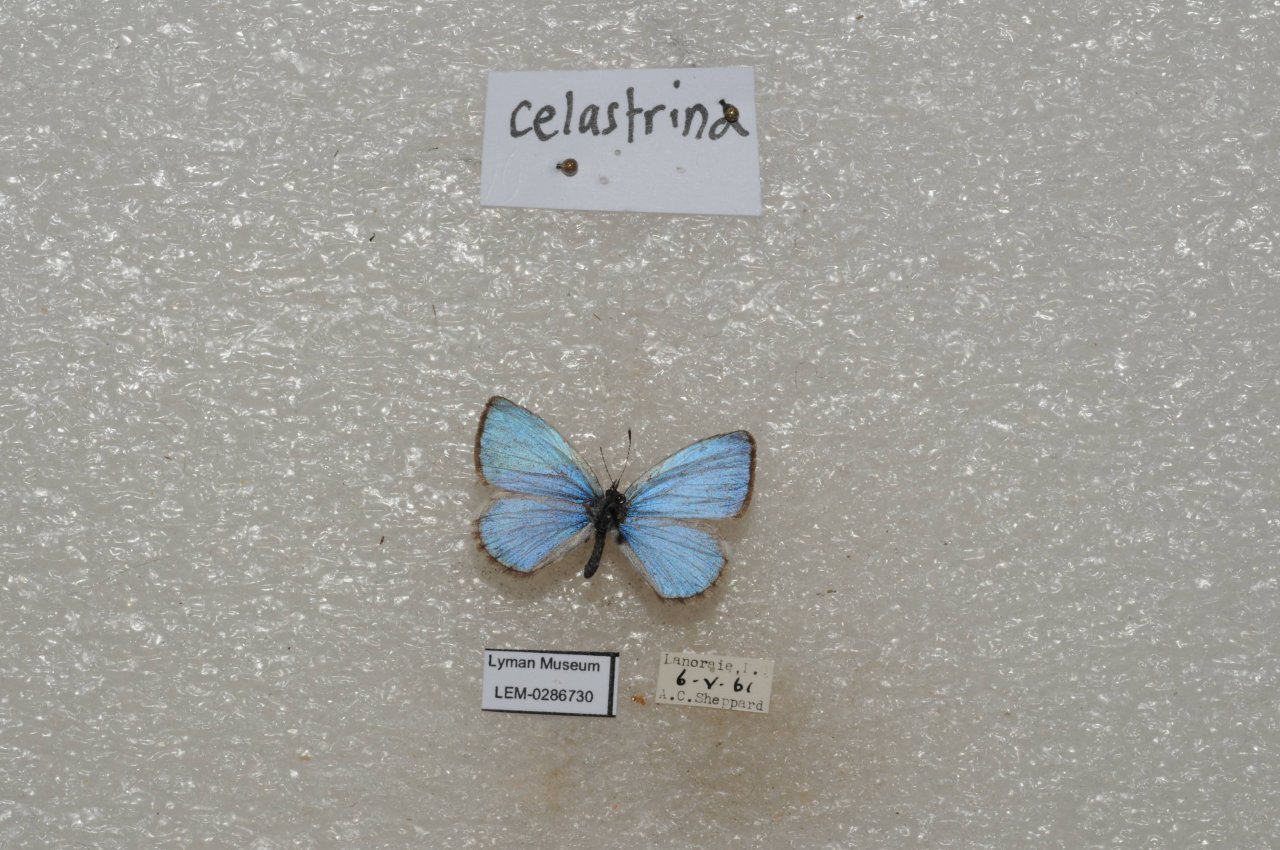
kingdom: Animalia
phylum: Arthropoda
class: Insecta
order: Lepidoptera
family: Lycaenidae
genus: Celastrina
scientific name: Celastrina lucia
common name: Northern Spring Azure
